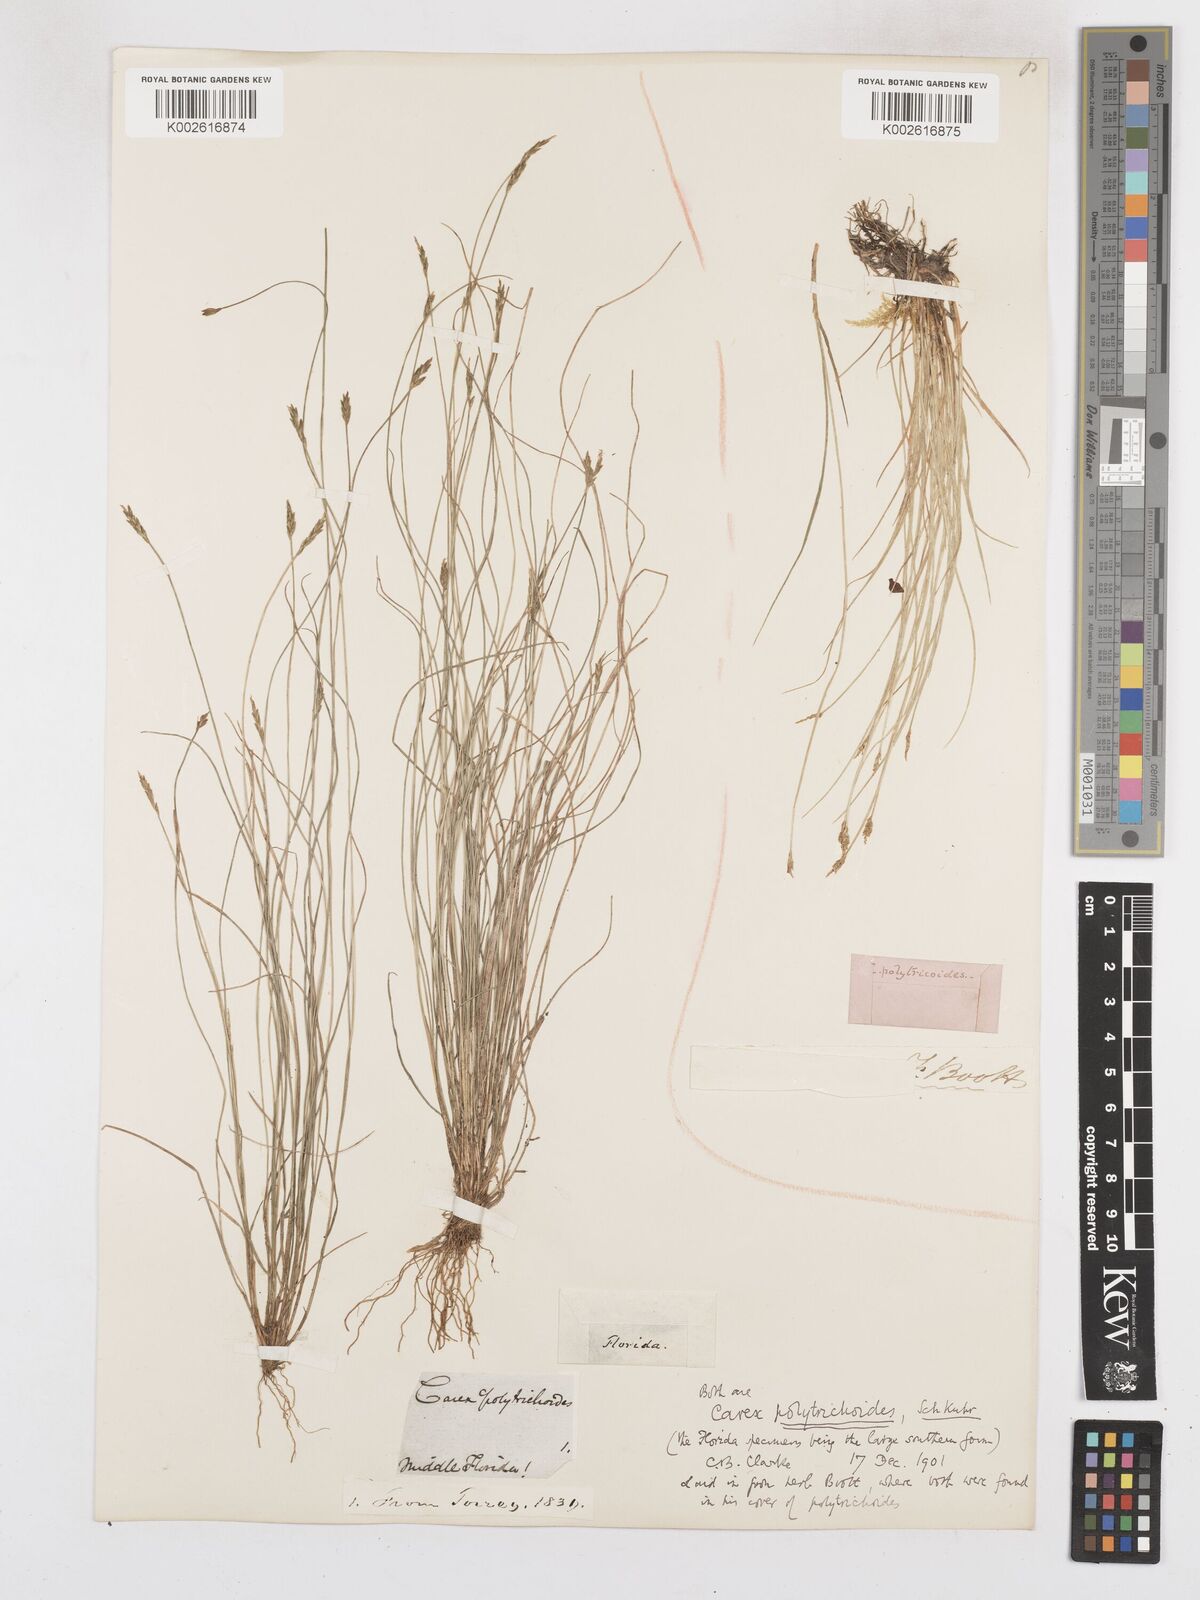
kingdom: Plantae
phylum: Tracheophyta
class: Liliopsida
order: Poales
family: Cyperaceae
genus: Carex
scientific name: Carex leptalea
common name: Bristly-stalked sedge
